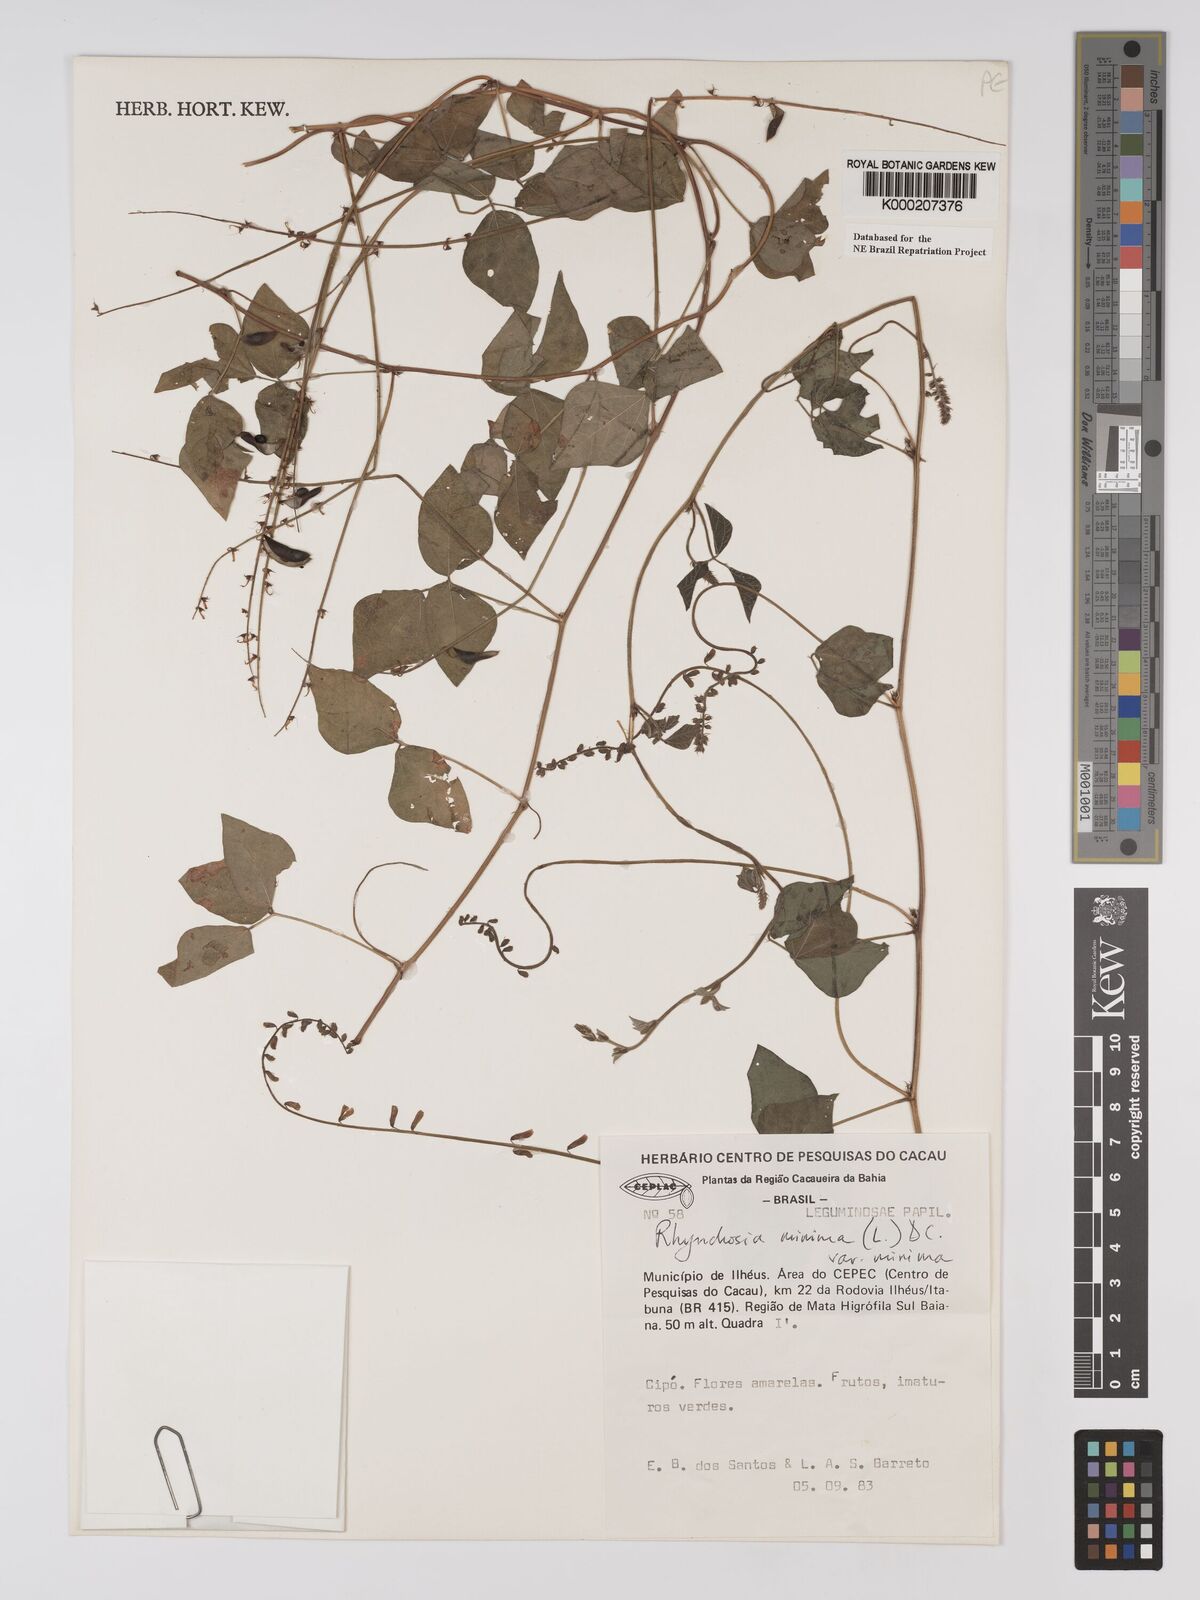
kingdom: Plantae
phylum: Tracheophyta
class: Magnoliopsida
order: Fabales
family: Fabaceae
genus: Rhynchosia
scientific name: Rhynchosia minima
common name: Least snoutbean
